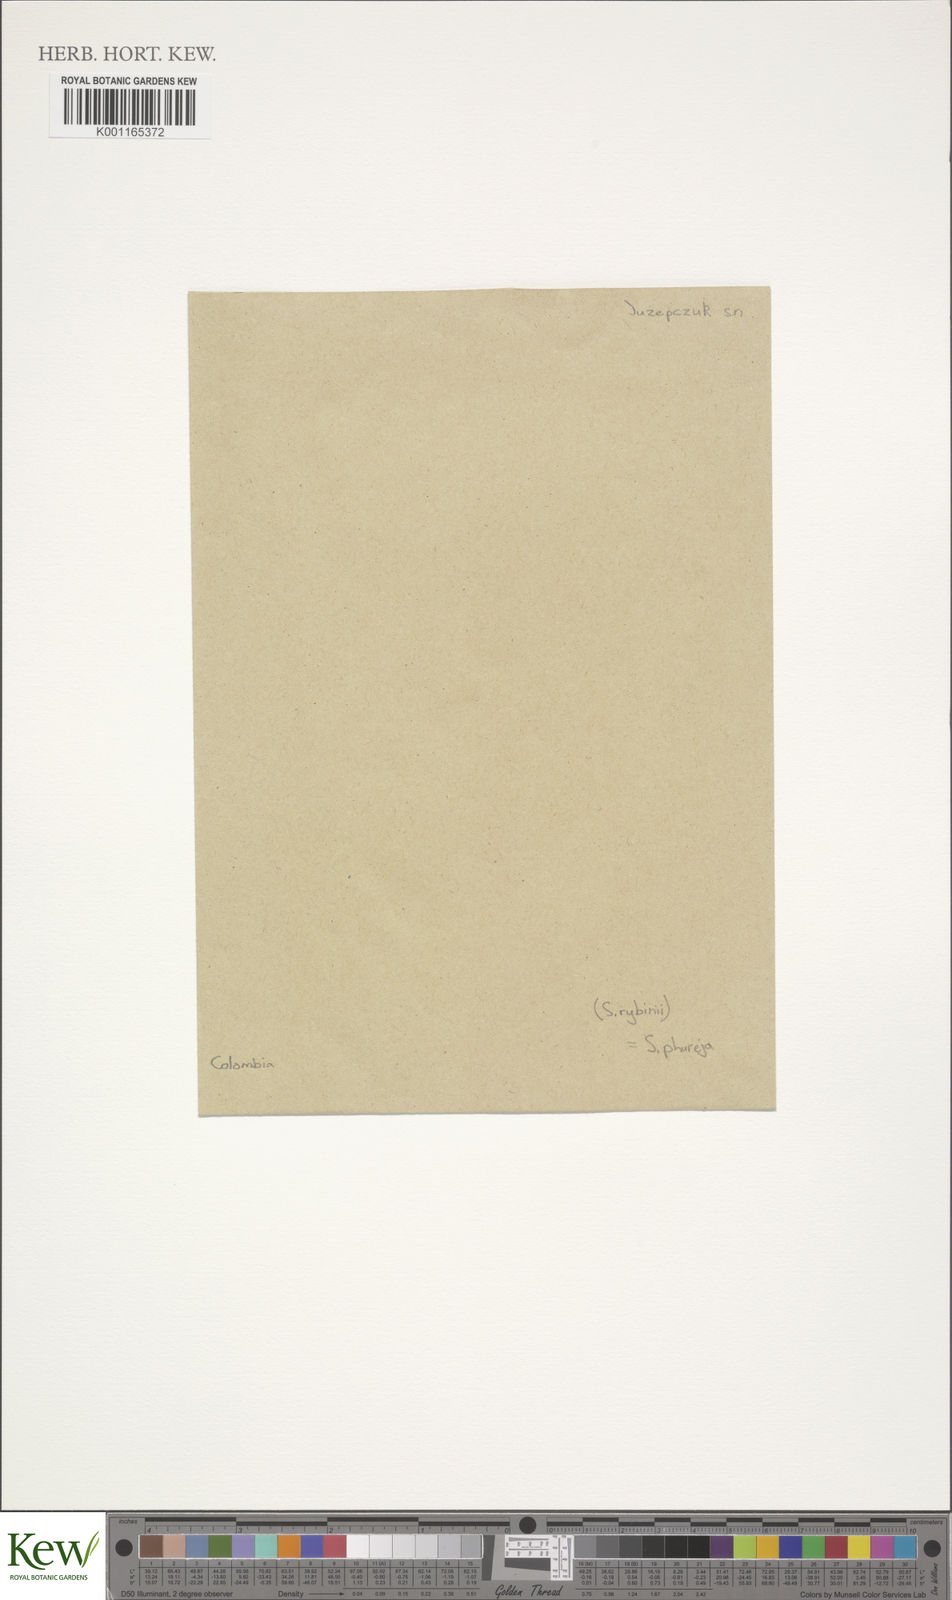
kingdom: Plantae
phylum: Tracheophyta
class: Magnoliopsida
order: Solanales
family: Solanaceae
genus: Solanum
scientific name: Solanum tuberosum
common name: Potato
